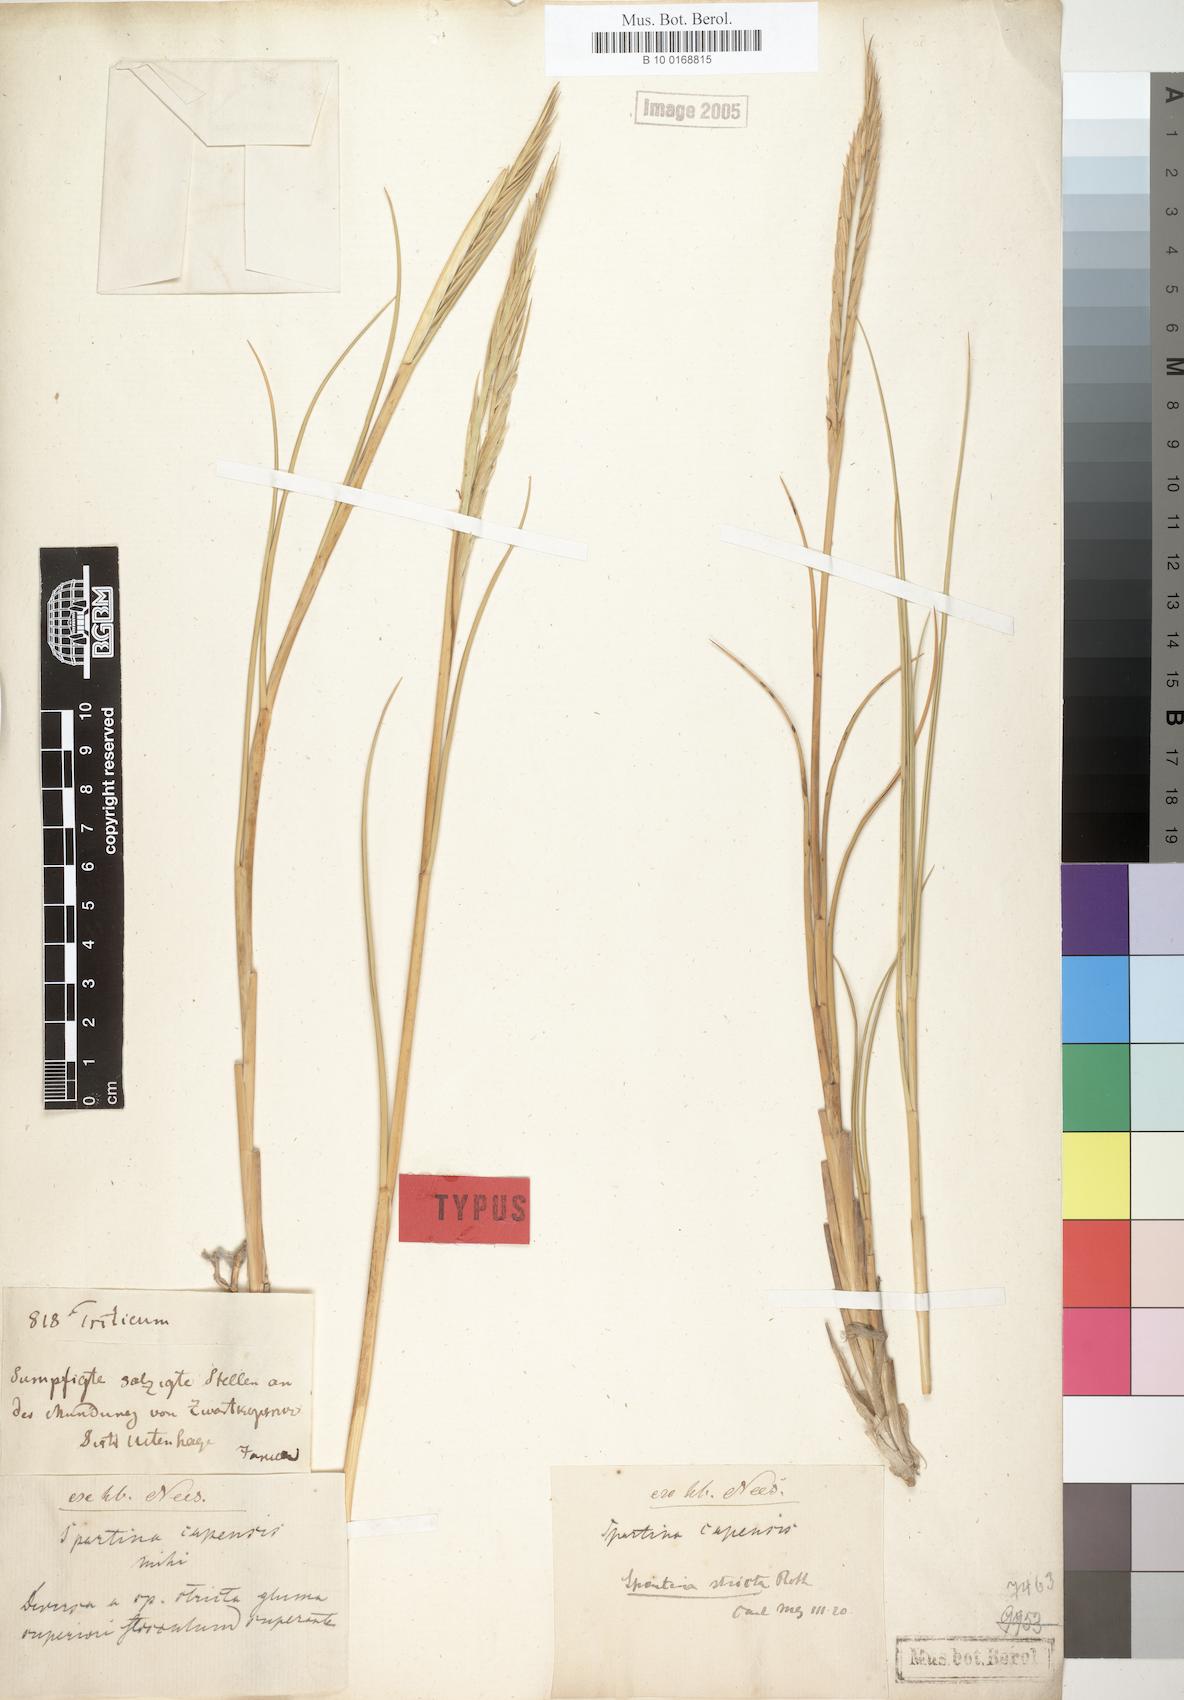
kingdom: Plantae
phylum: Tracheophyta
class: Liliopsida
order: Poales
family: Poaceae
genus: Sporobolus
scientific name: Sporobolus maritimus
